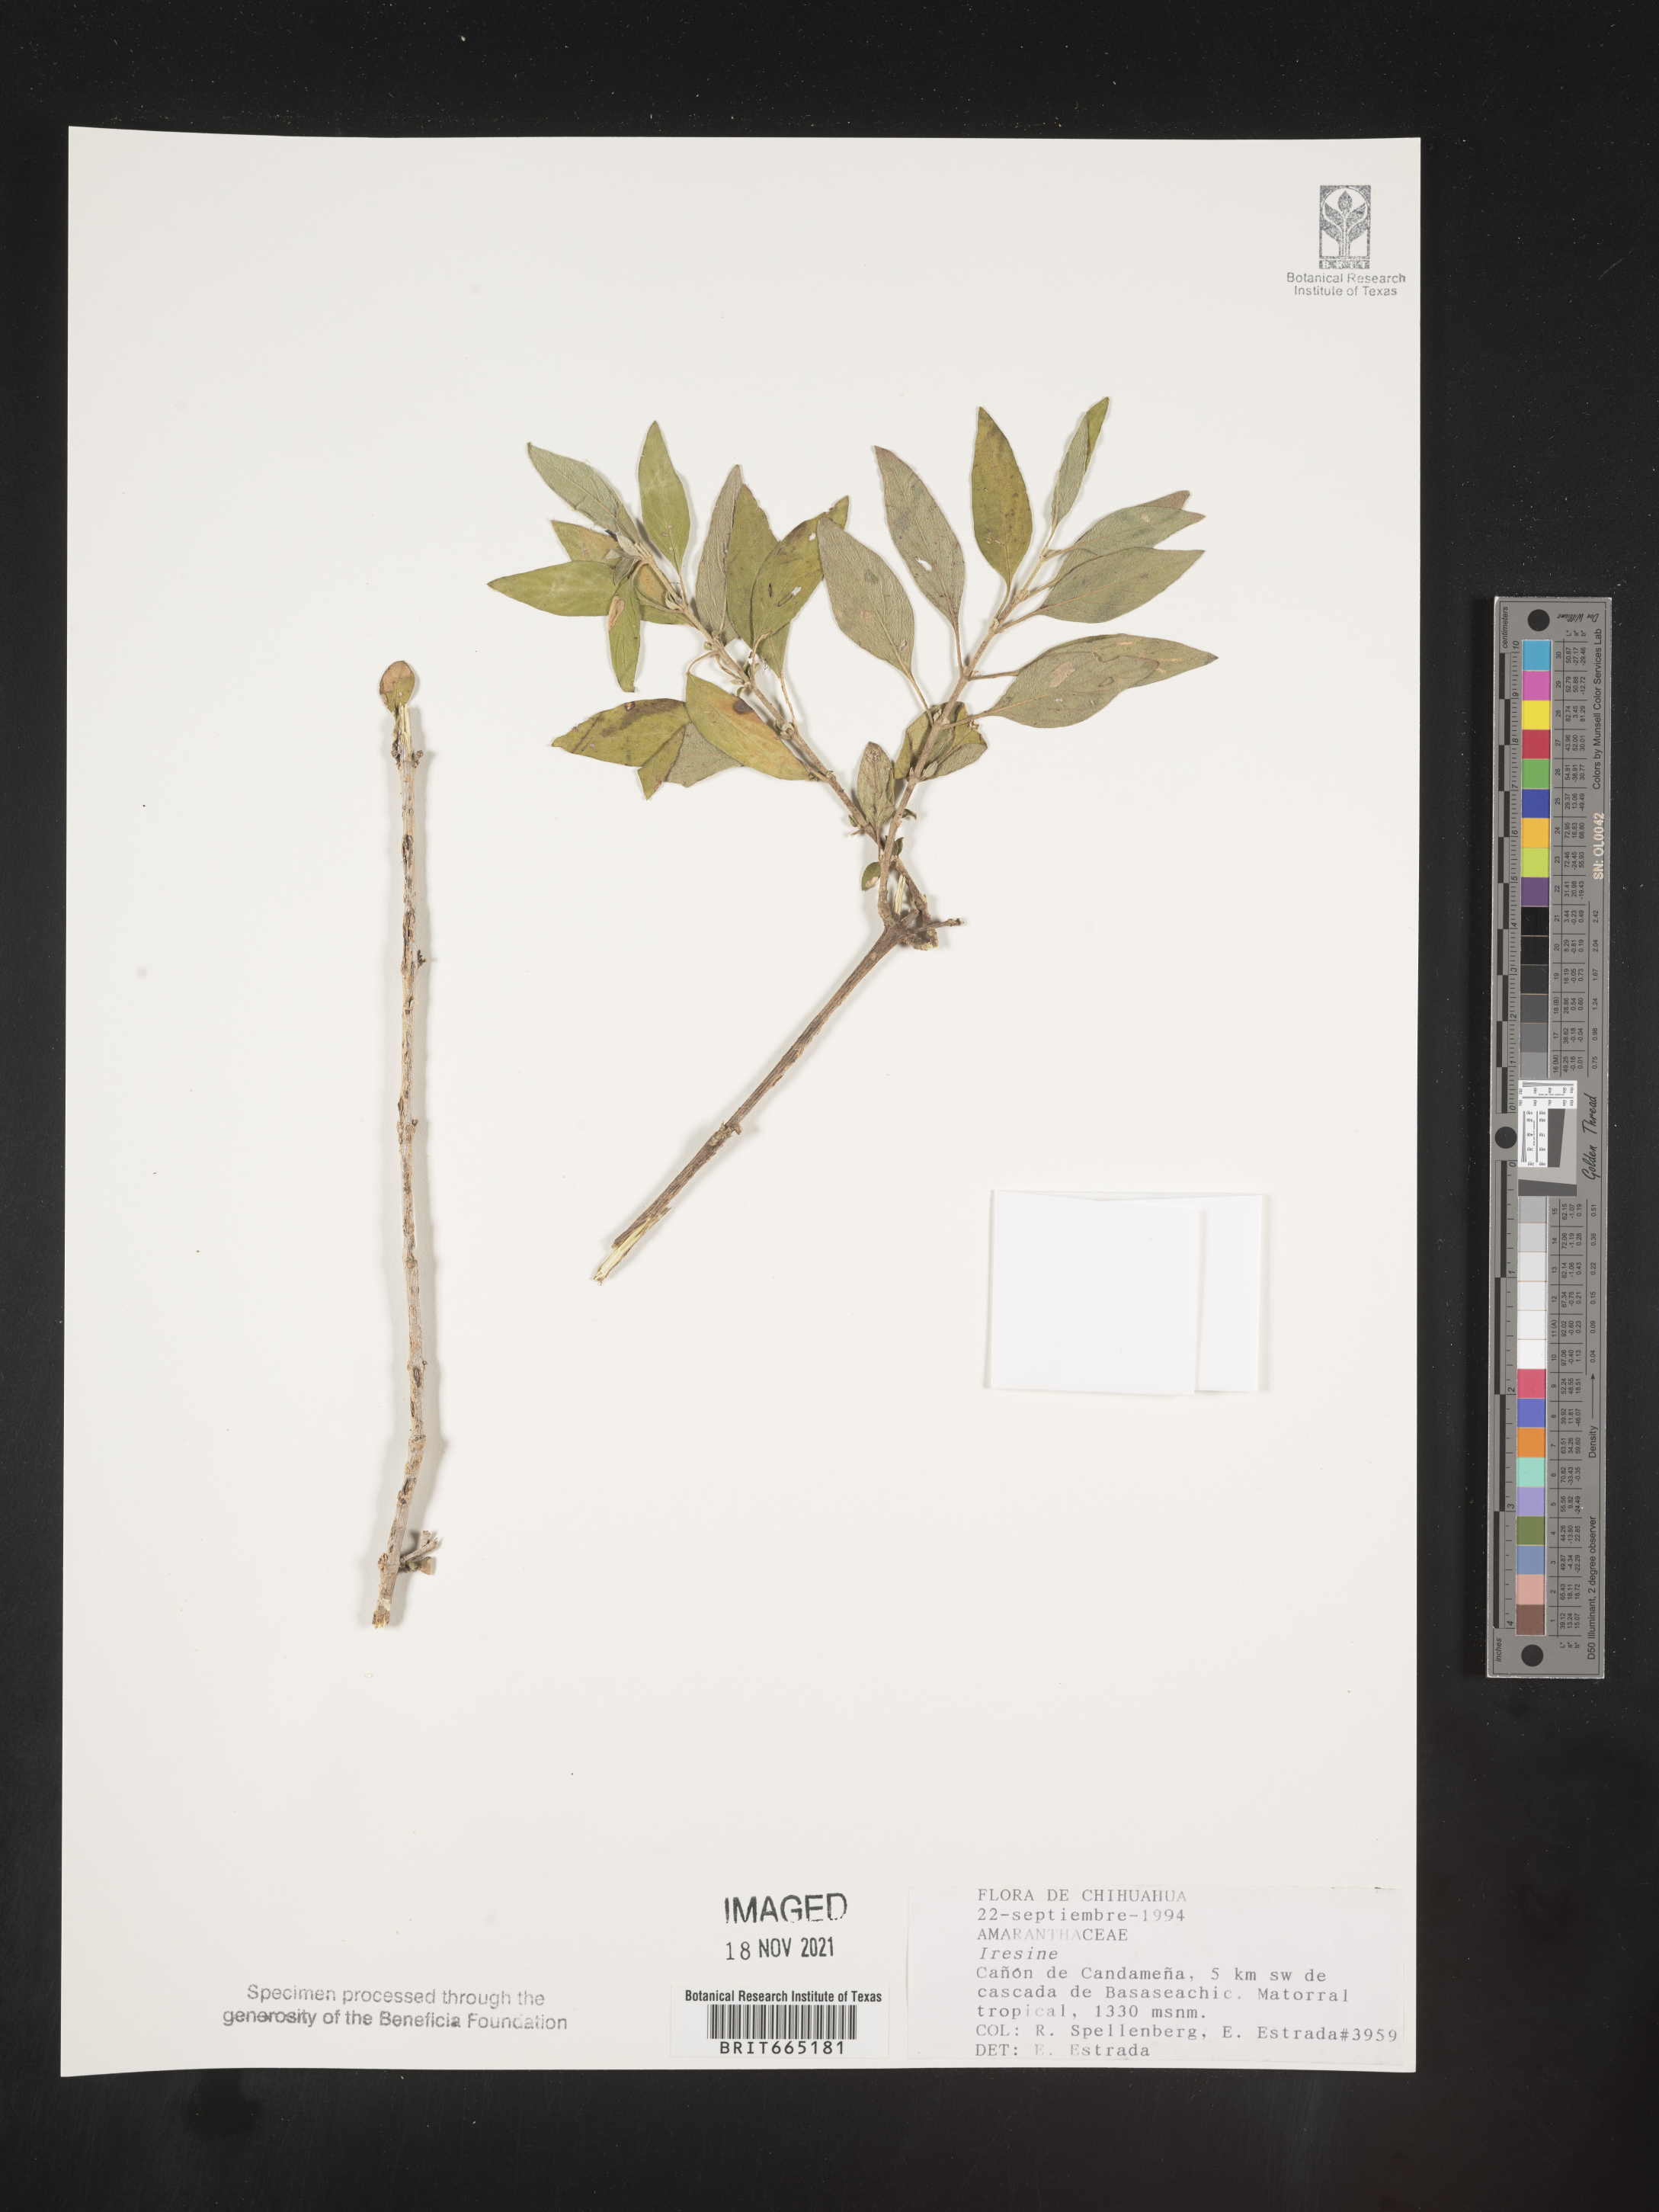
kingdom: Plantae
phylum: Tracheophyta
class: Magnoliopsida
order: Caryophyllales
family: Amaranthaceae
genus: Iresine
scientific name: Iresine
